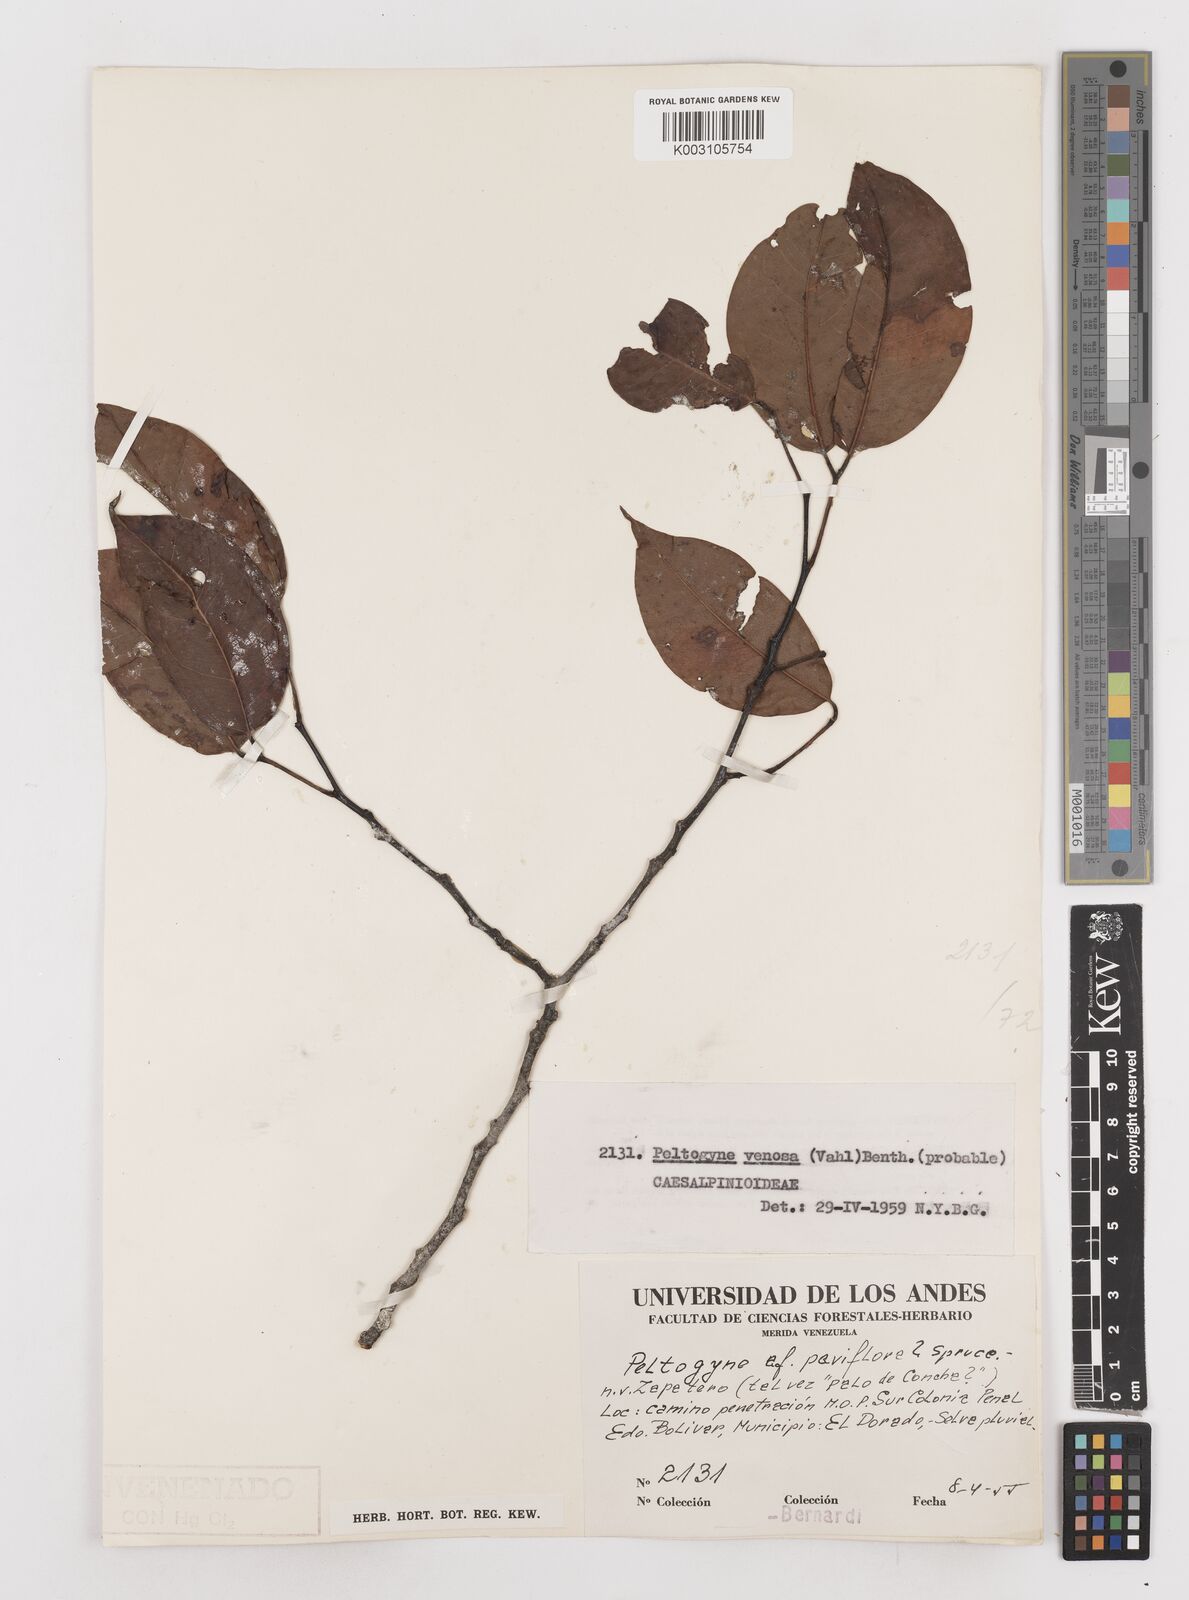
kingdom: Plantae
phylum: Tracheophyta
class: Magnoliopsida
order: Fabales
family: Fabaceae
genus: Peltogyne
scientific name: Peltogyne venosa
